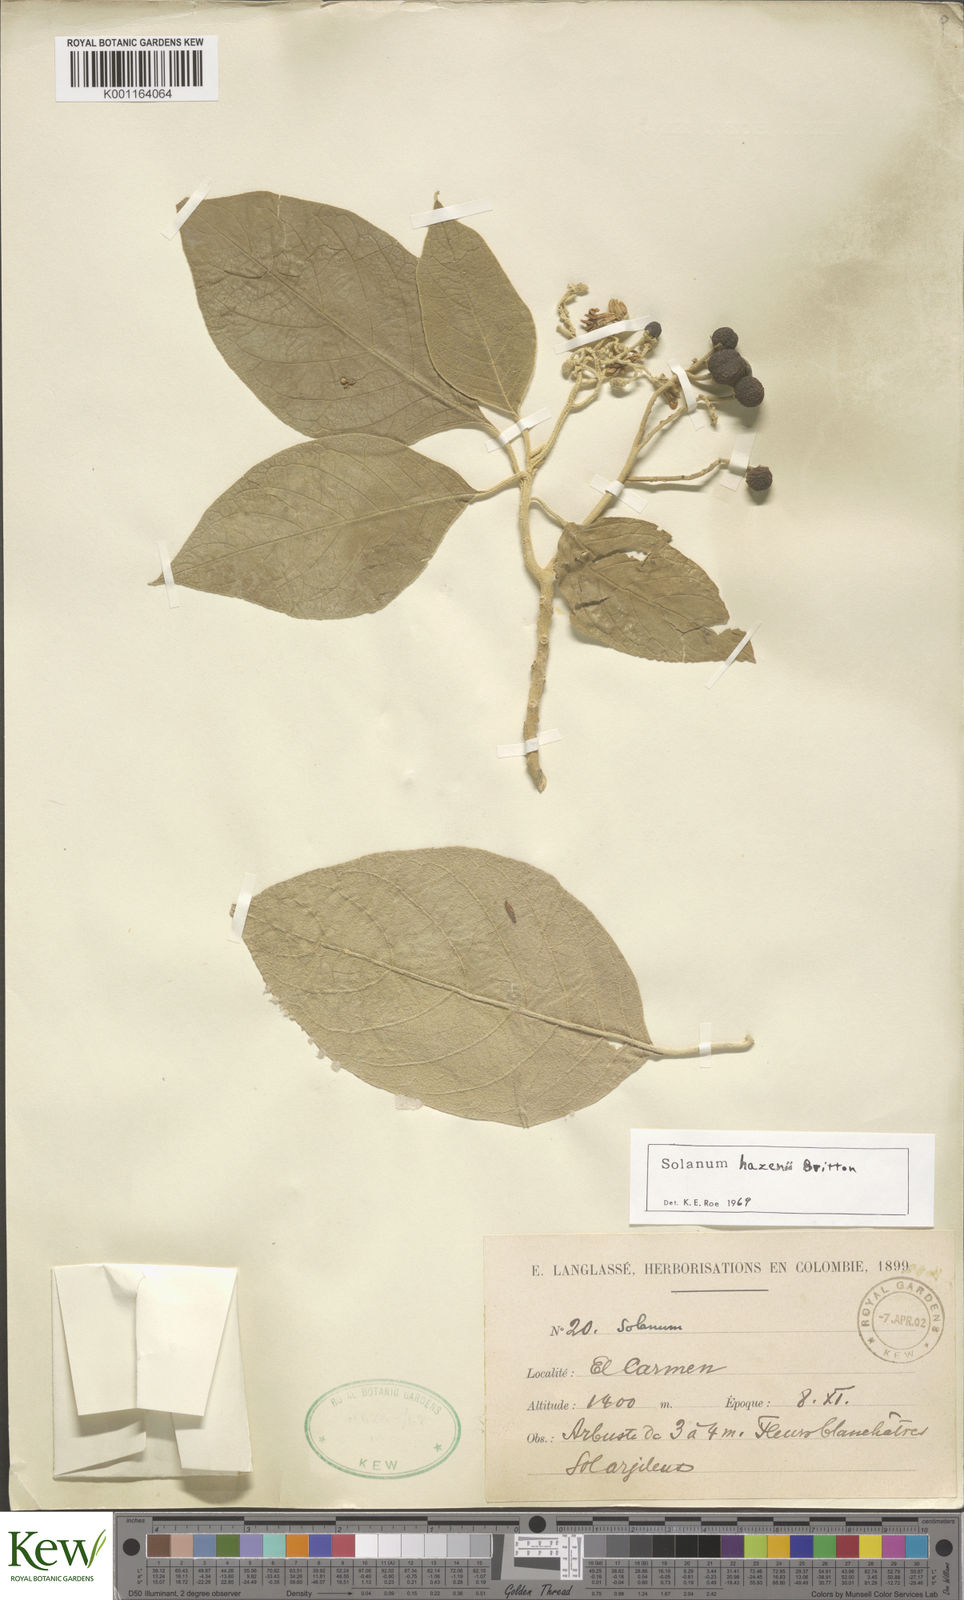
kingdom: Plantae
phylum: Tracheophyta
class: Magnoliopsida
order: Solanales
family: Solanaceae
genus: Solanum
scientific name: Solanum hazenii
